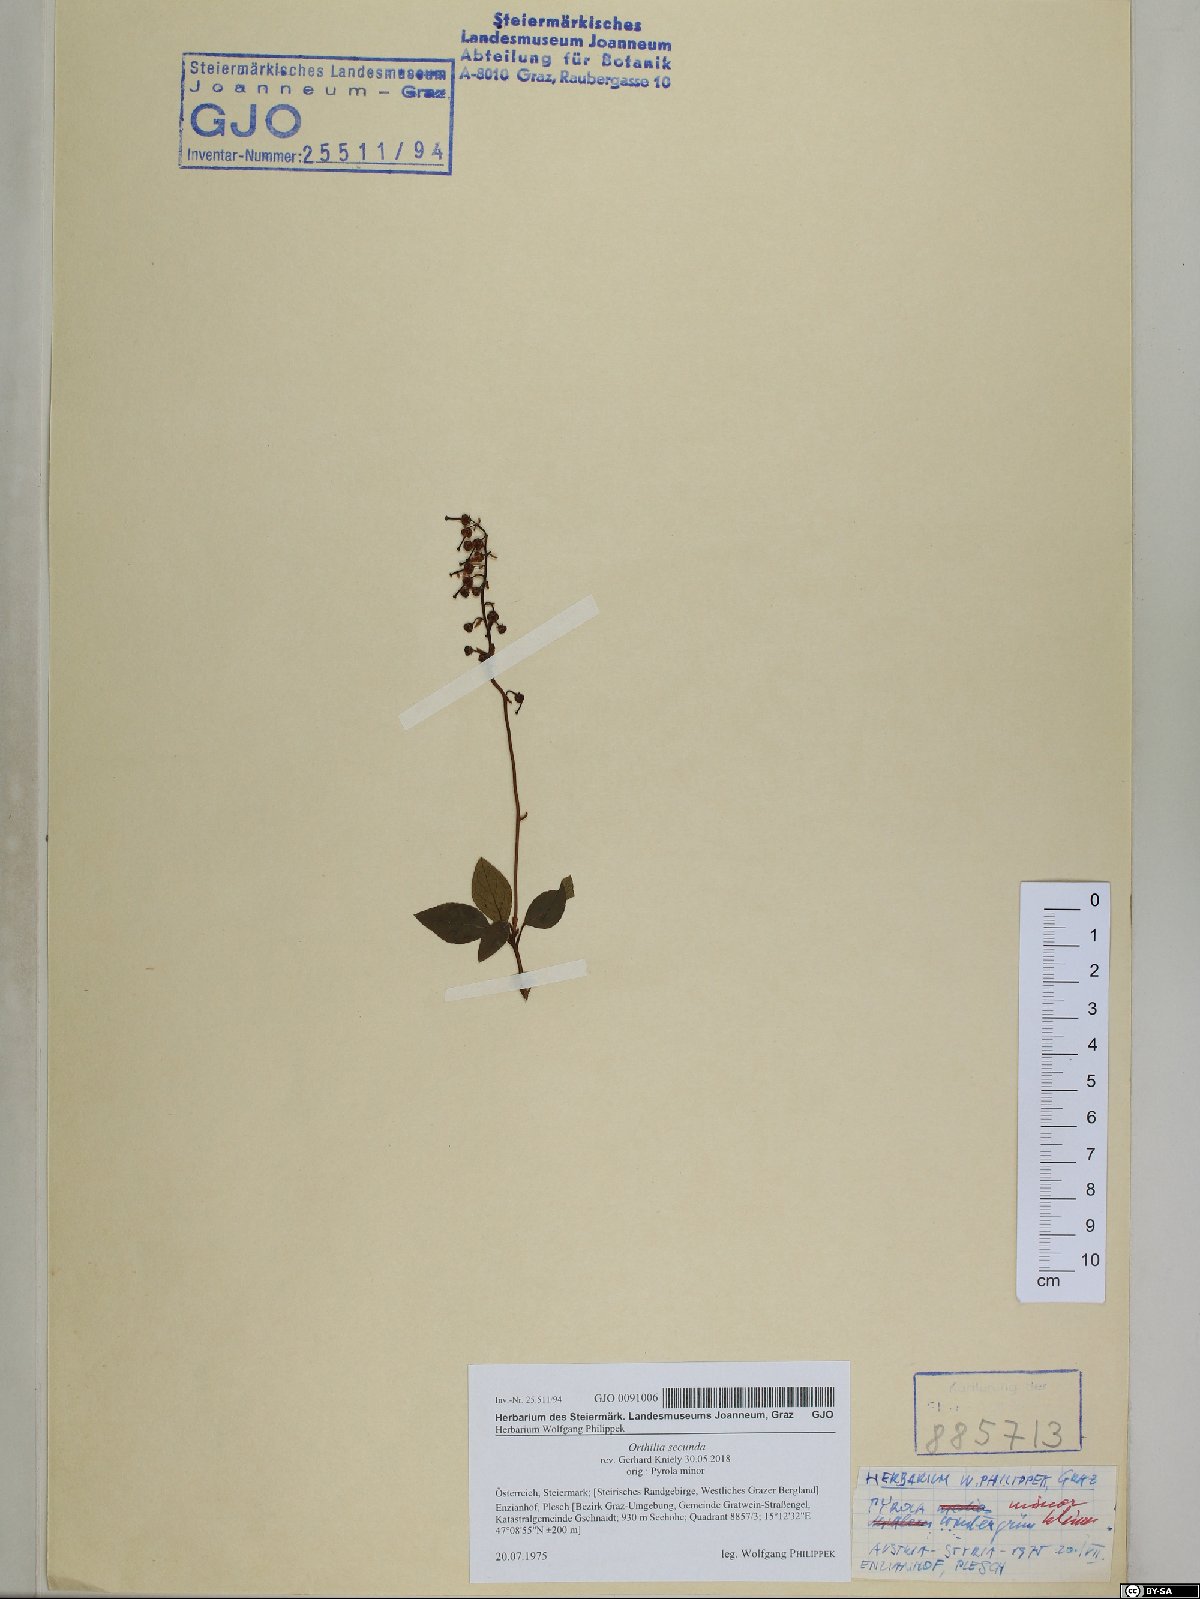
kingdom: Plantae
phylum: Tracheophyta
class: Magnoliopsida
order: Ericales
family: Ericaceae
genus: Orthilia
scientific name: Orthilia secunda
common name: One-sided orthilia
